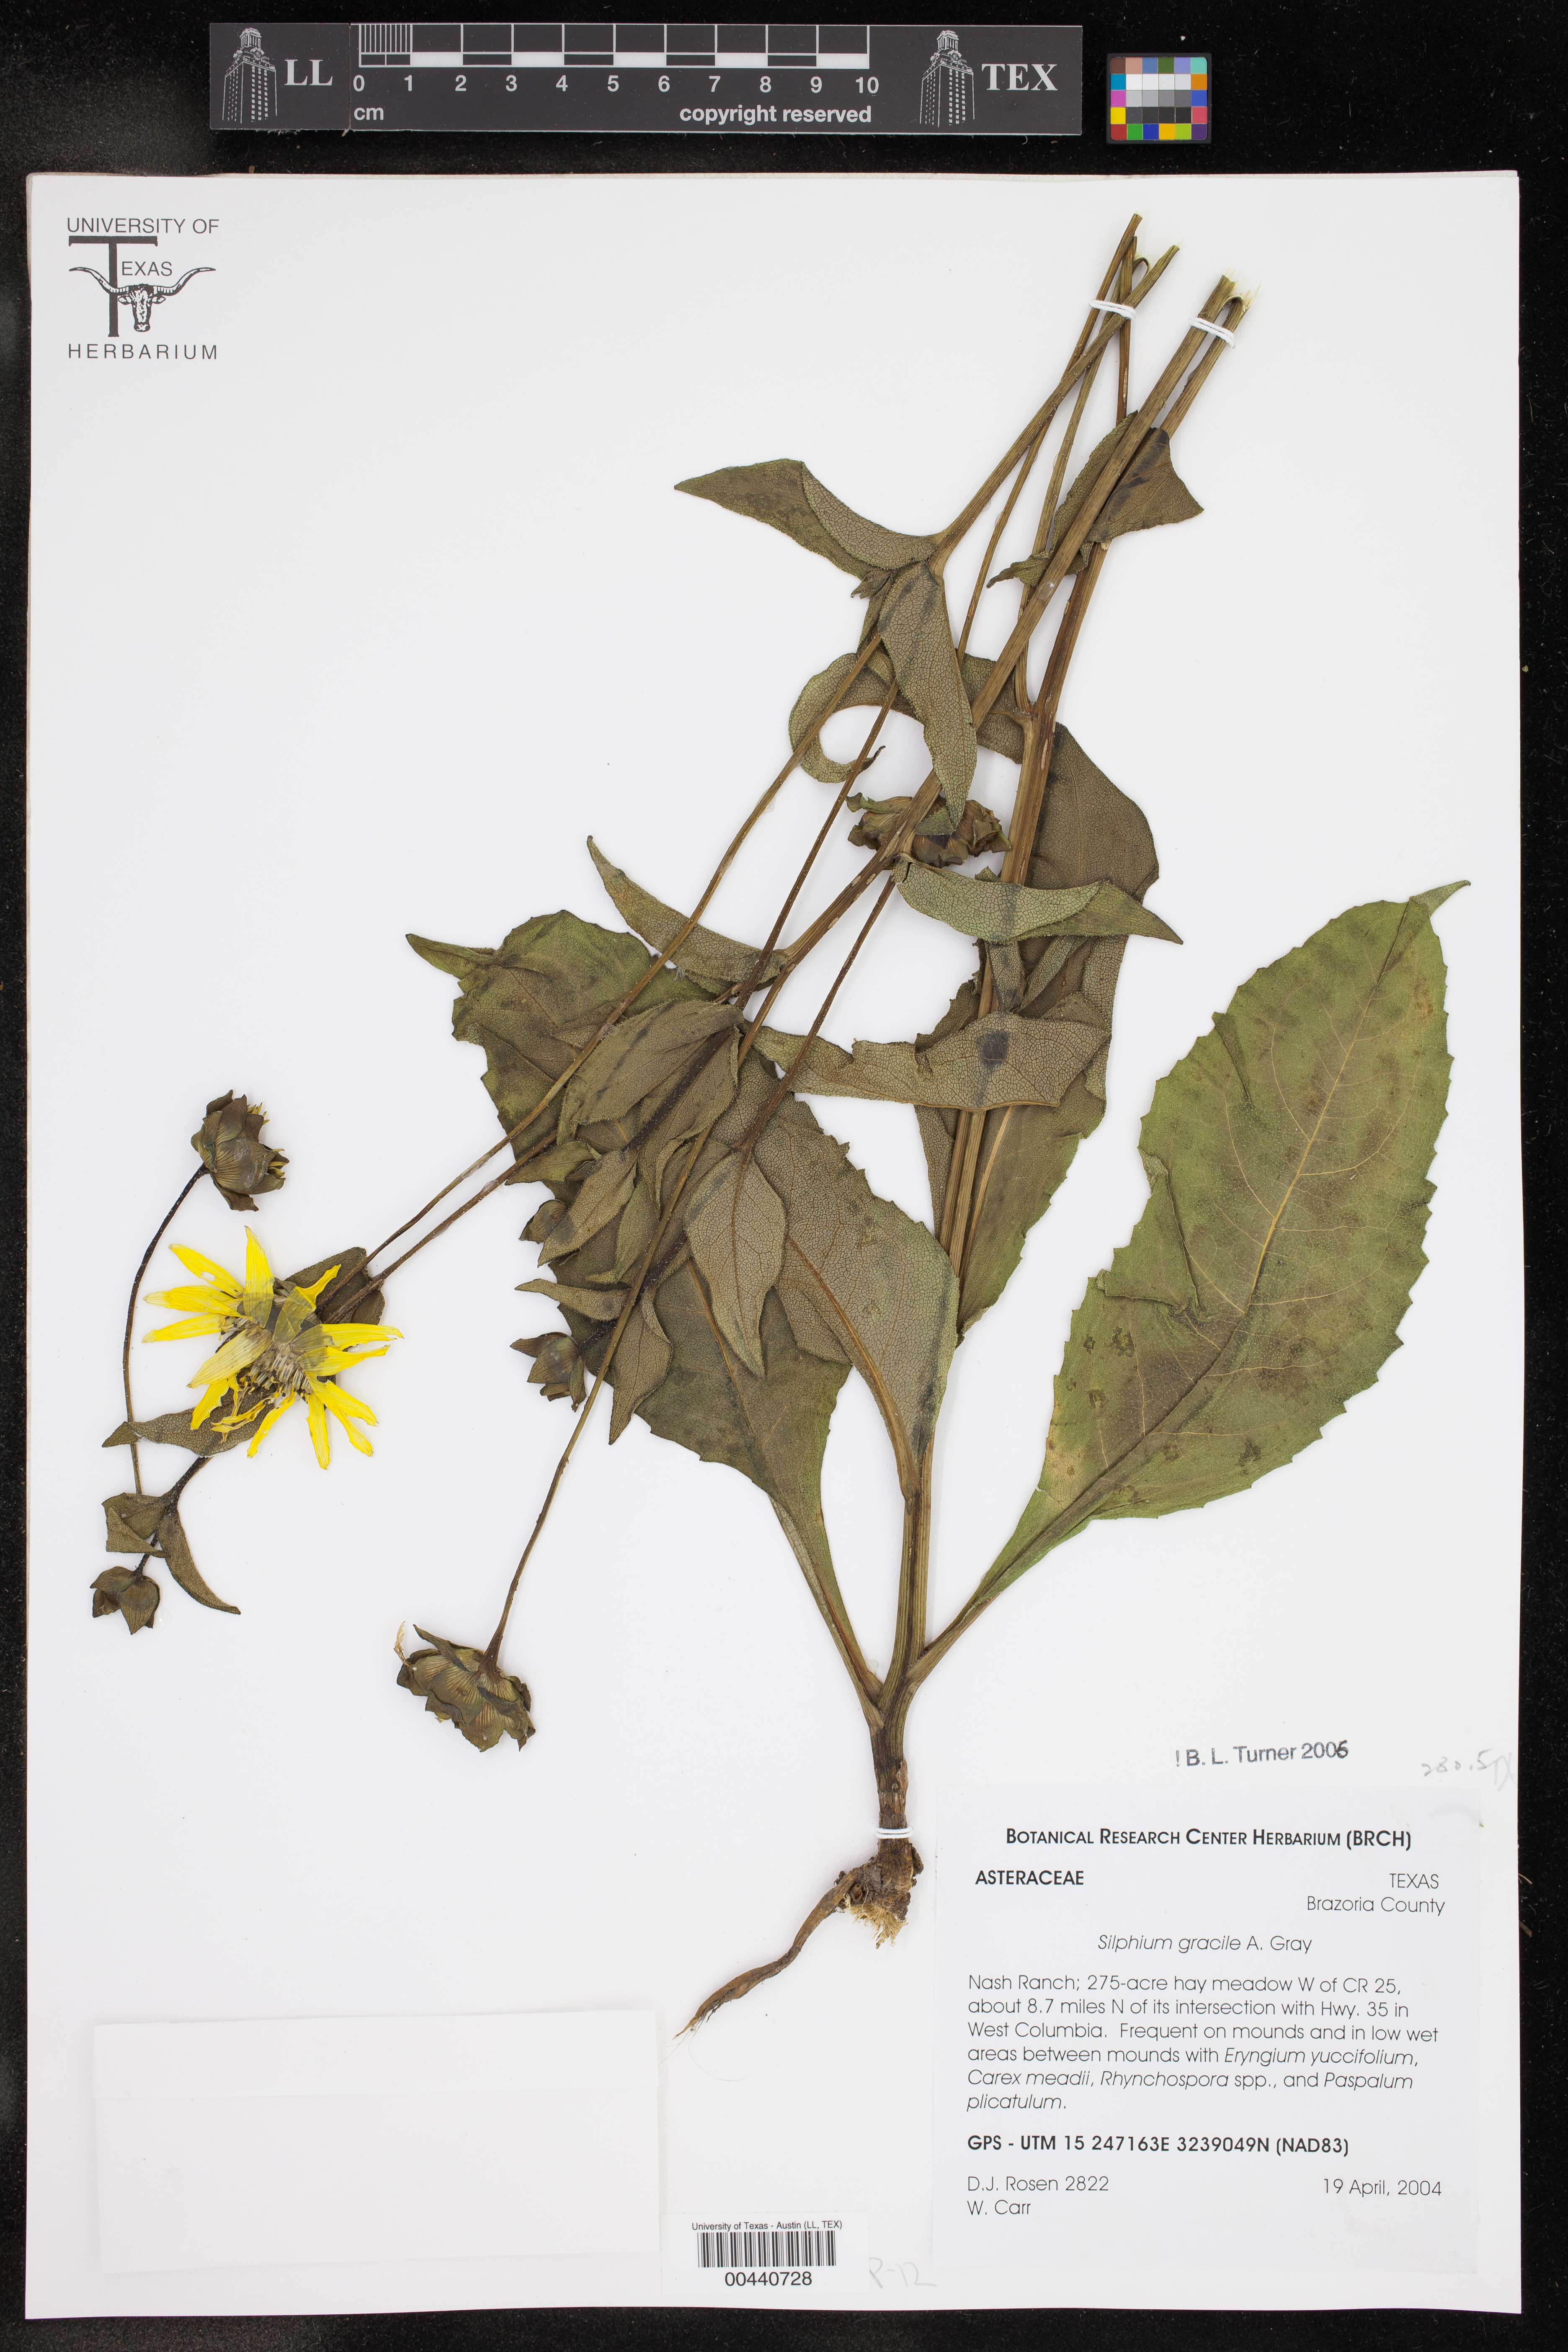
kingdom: Plantae
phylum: Tracheophyta
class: Magnoliopsida
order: Asterales
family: Asteraceae
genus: Silphium
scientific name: Silphium radula
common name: Roughleaf rosinweed
